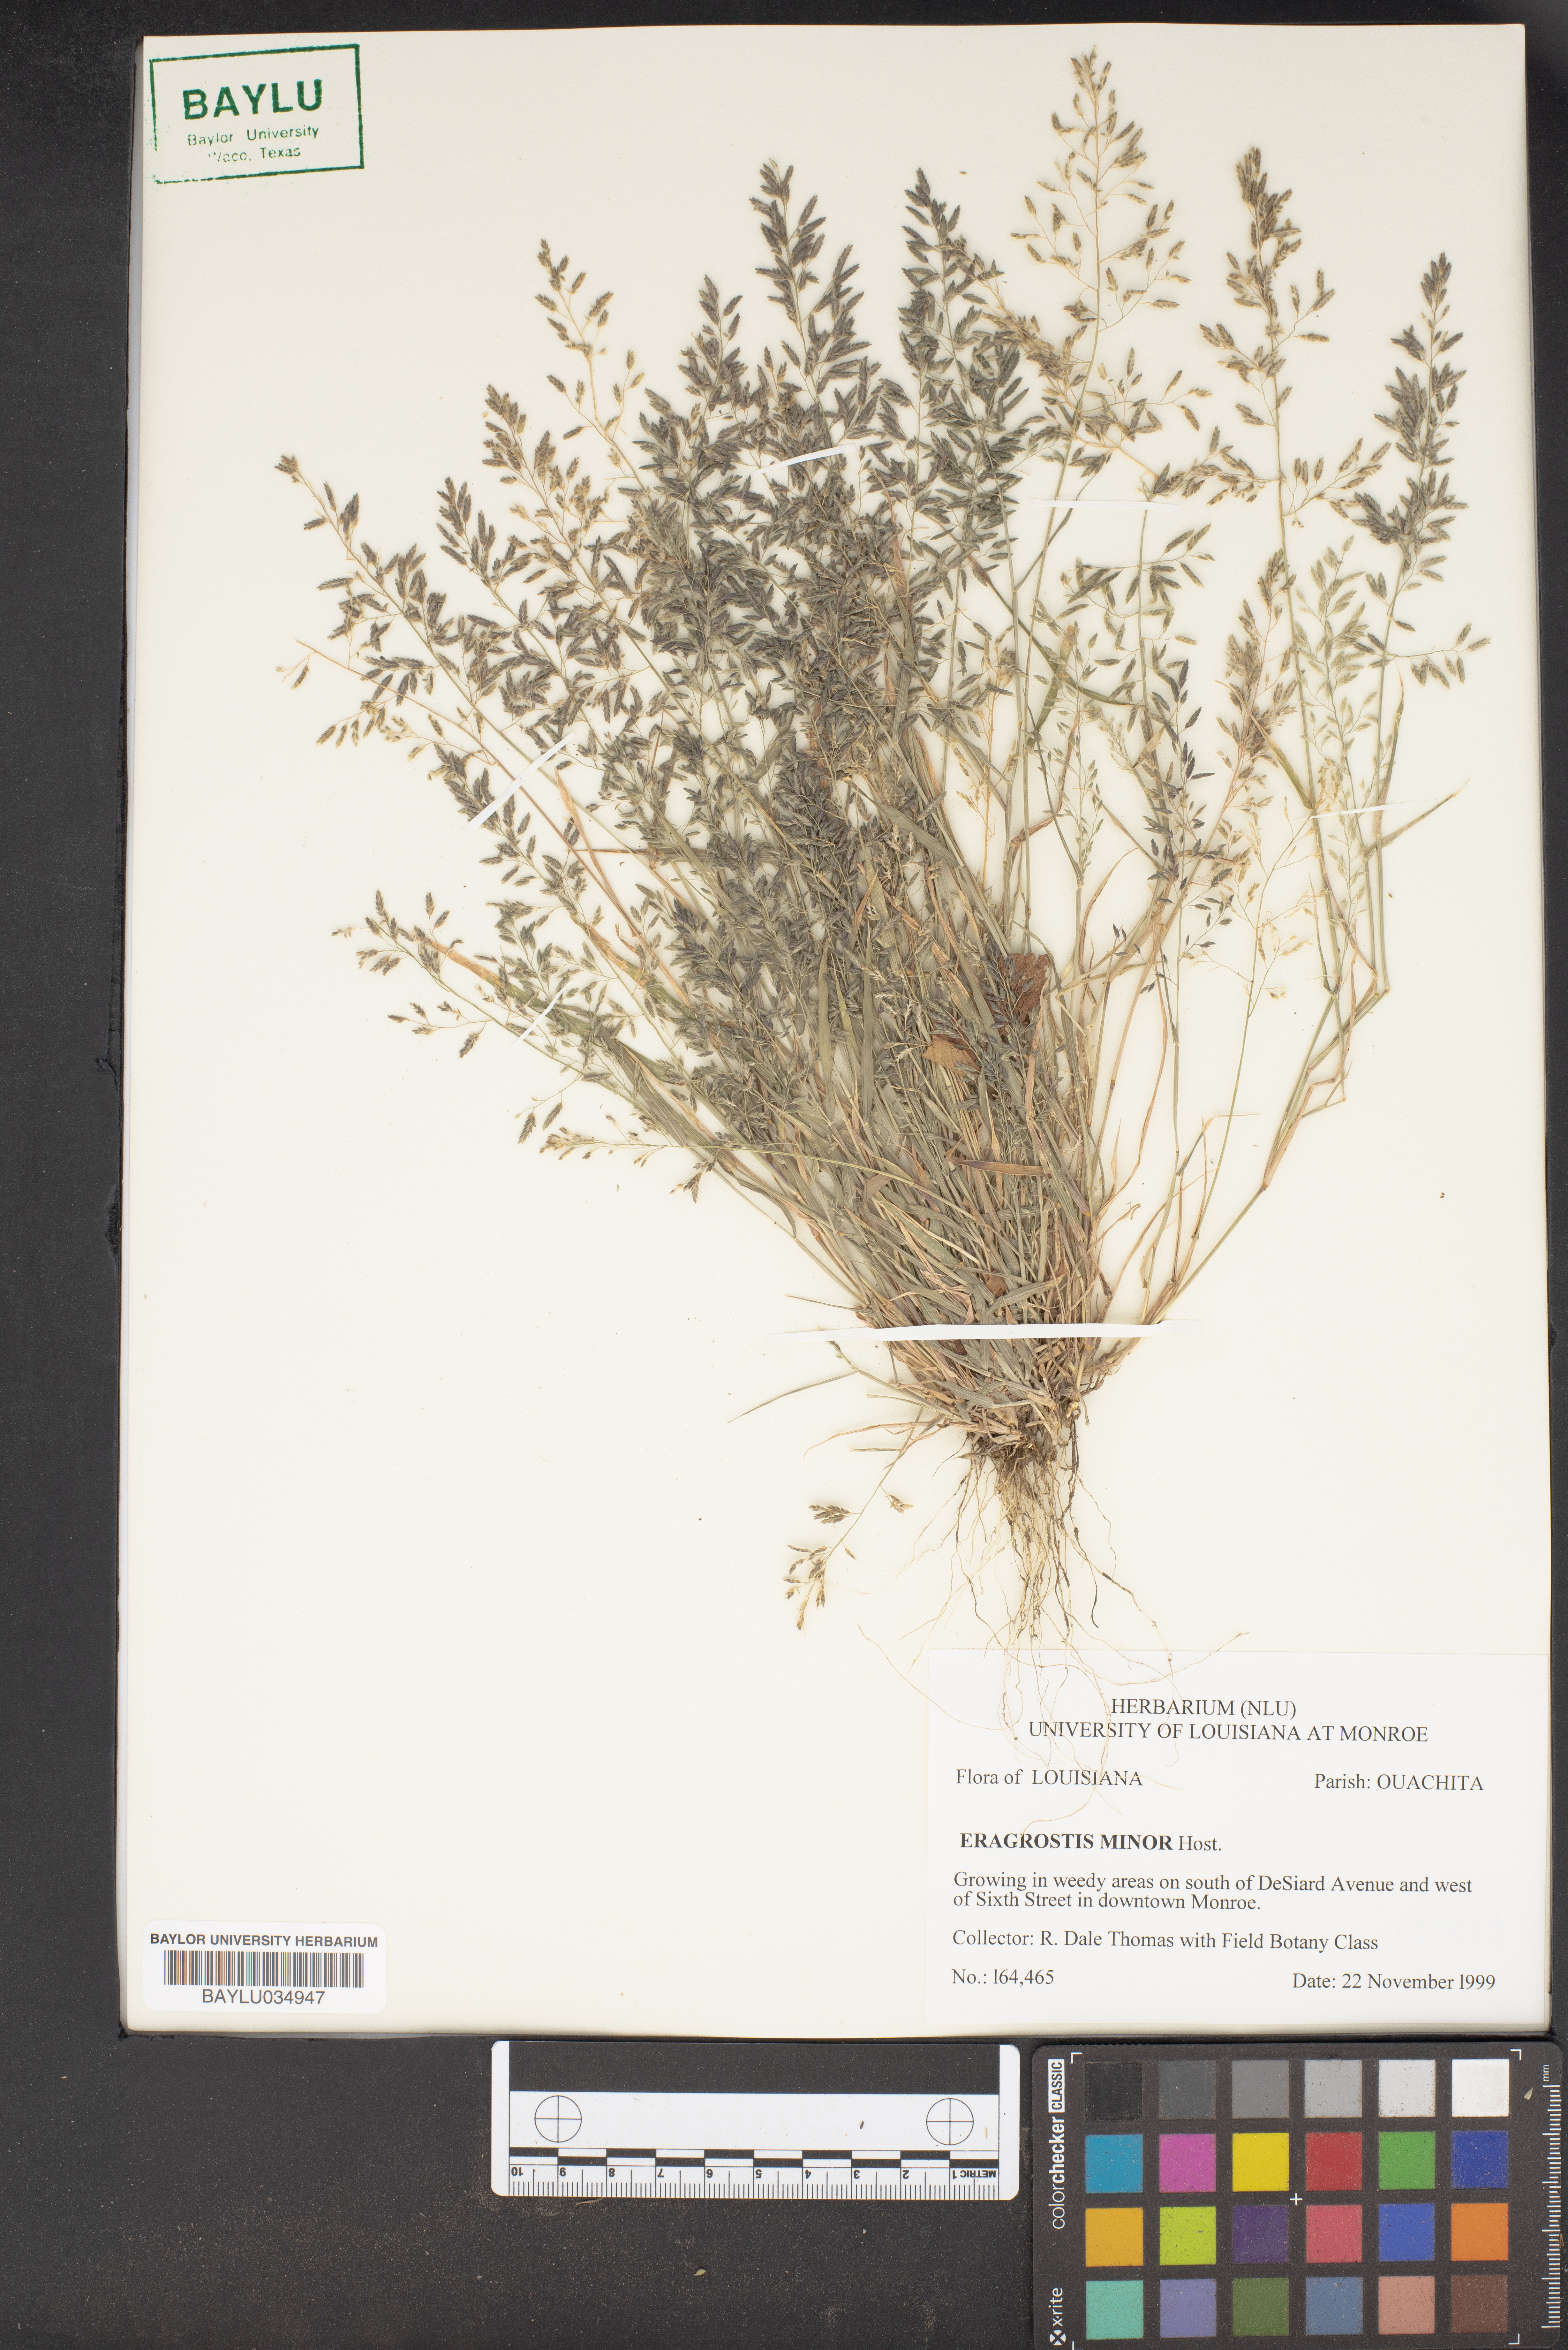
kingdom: Plantae
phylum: Tracheophyta
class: Liliopsida
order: Poales
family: Poaceae
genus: Eragrostis
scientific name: Eragrostis minor
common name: Small love-grass
